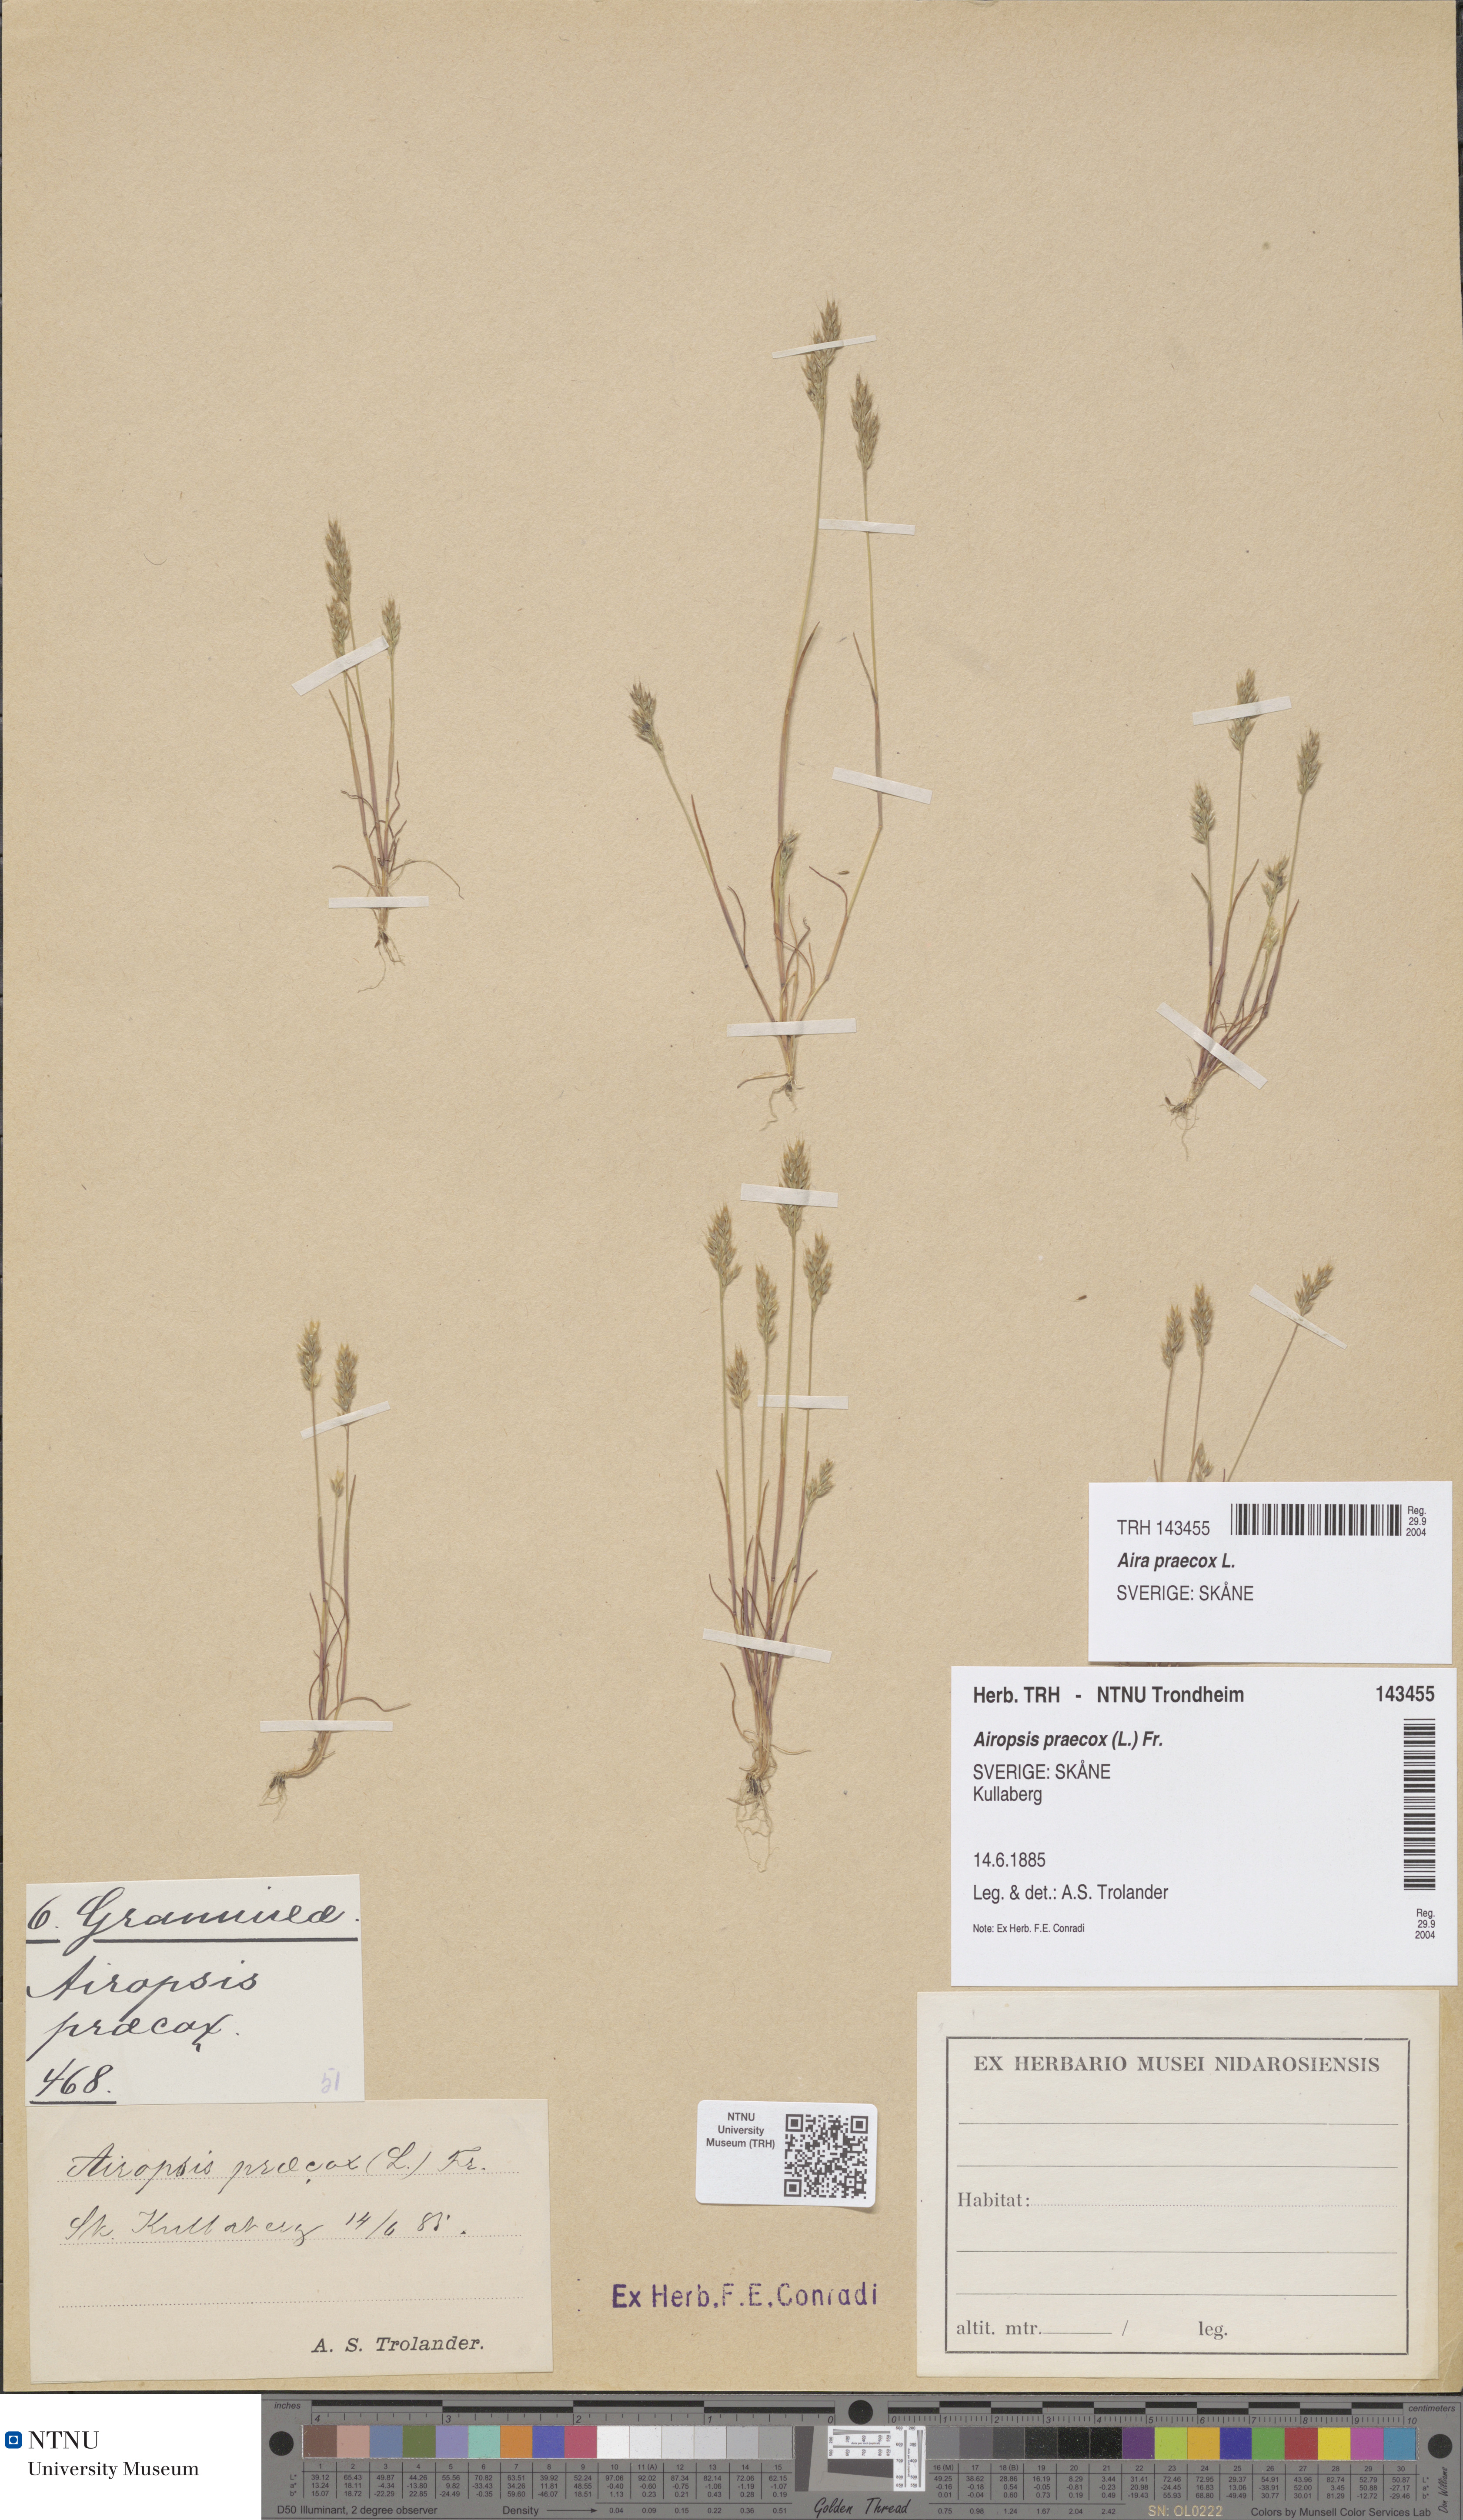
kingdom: Plantae
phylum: Tracheophyta
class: Liliopsida
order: Poales
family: Poaceae
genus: Aira
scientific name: Aira praecox
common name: Early hair-grass
